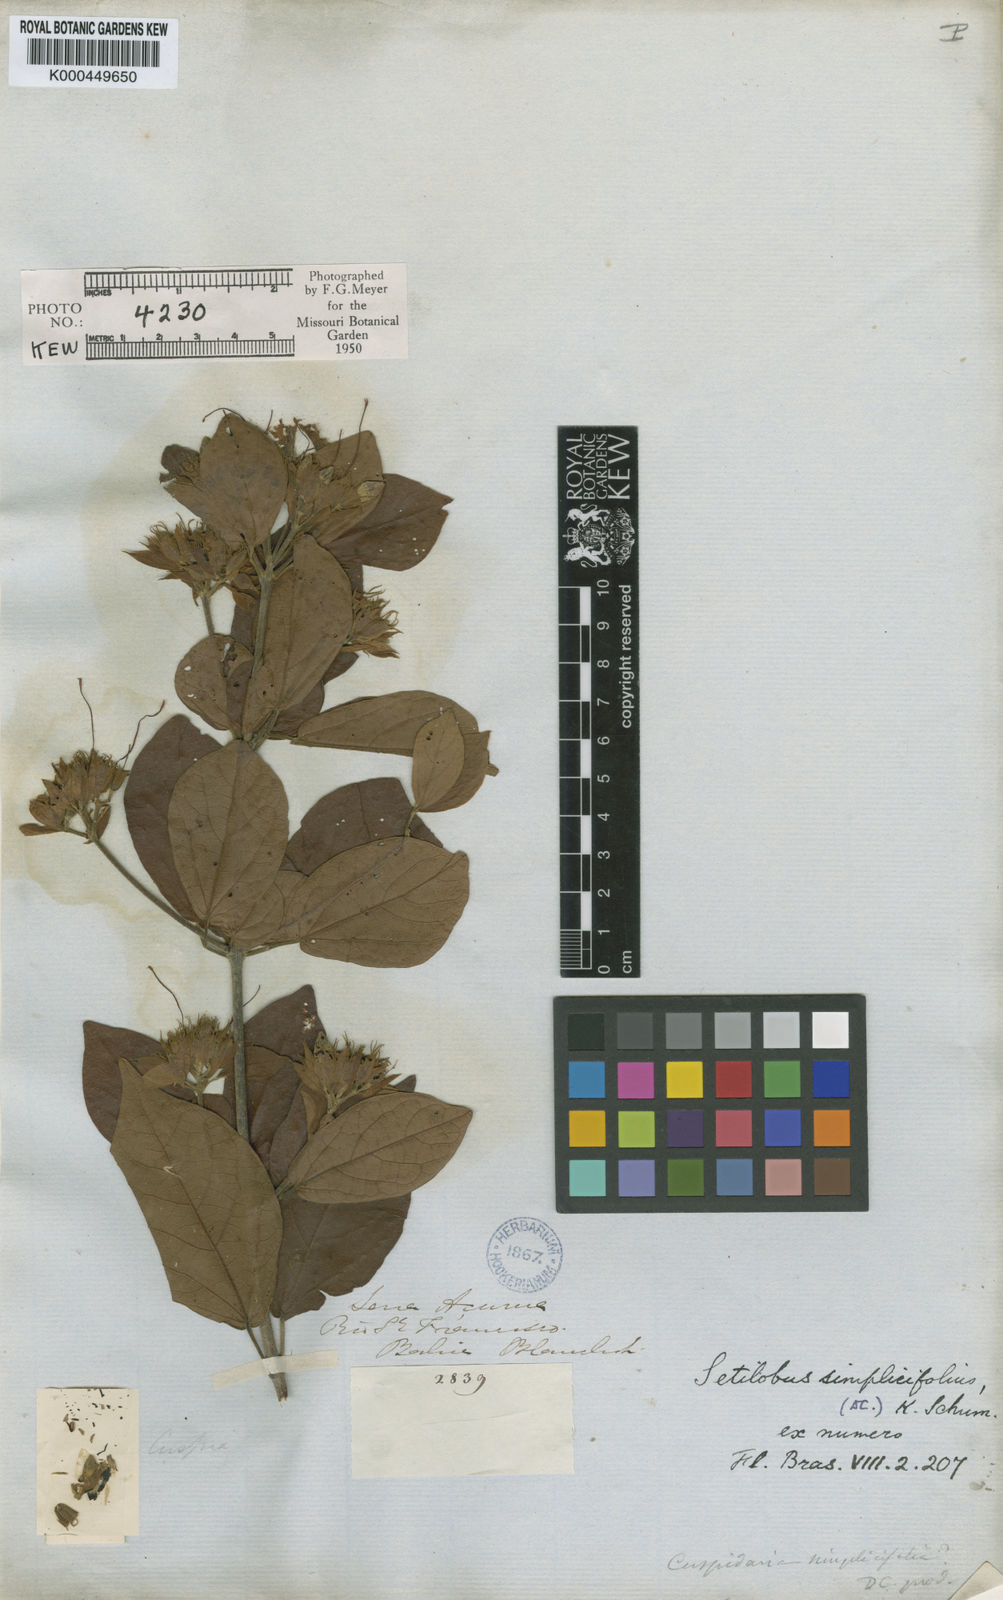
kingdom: Plantae
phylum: Tracheophyta
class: Magnoliopsida
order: Lamiales
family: Bignoniaceae
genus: Cuspidaria
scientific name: Cuspidaria simplicifolia
